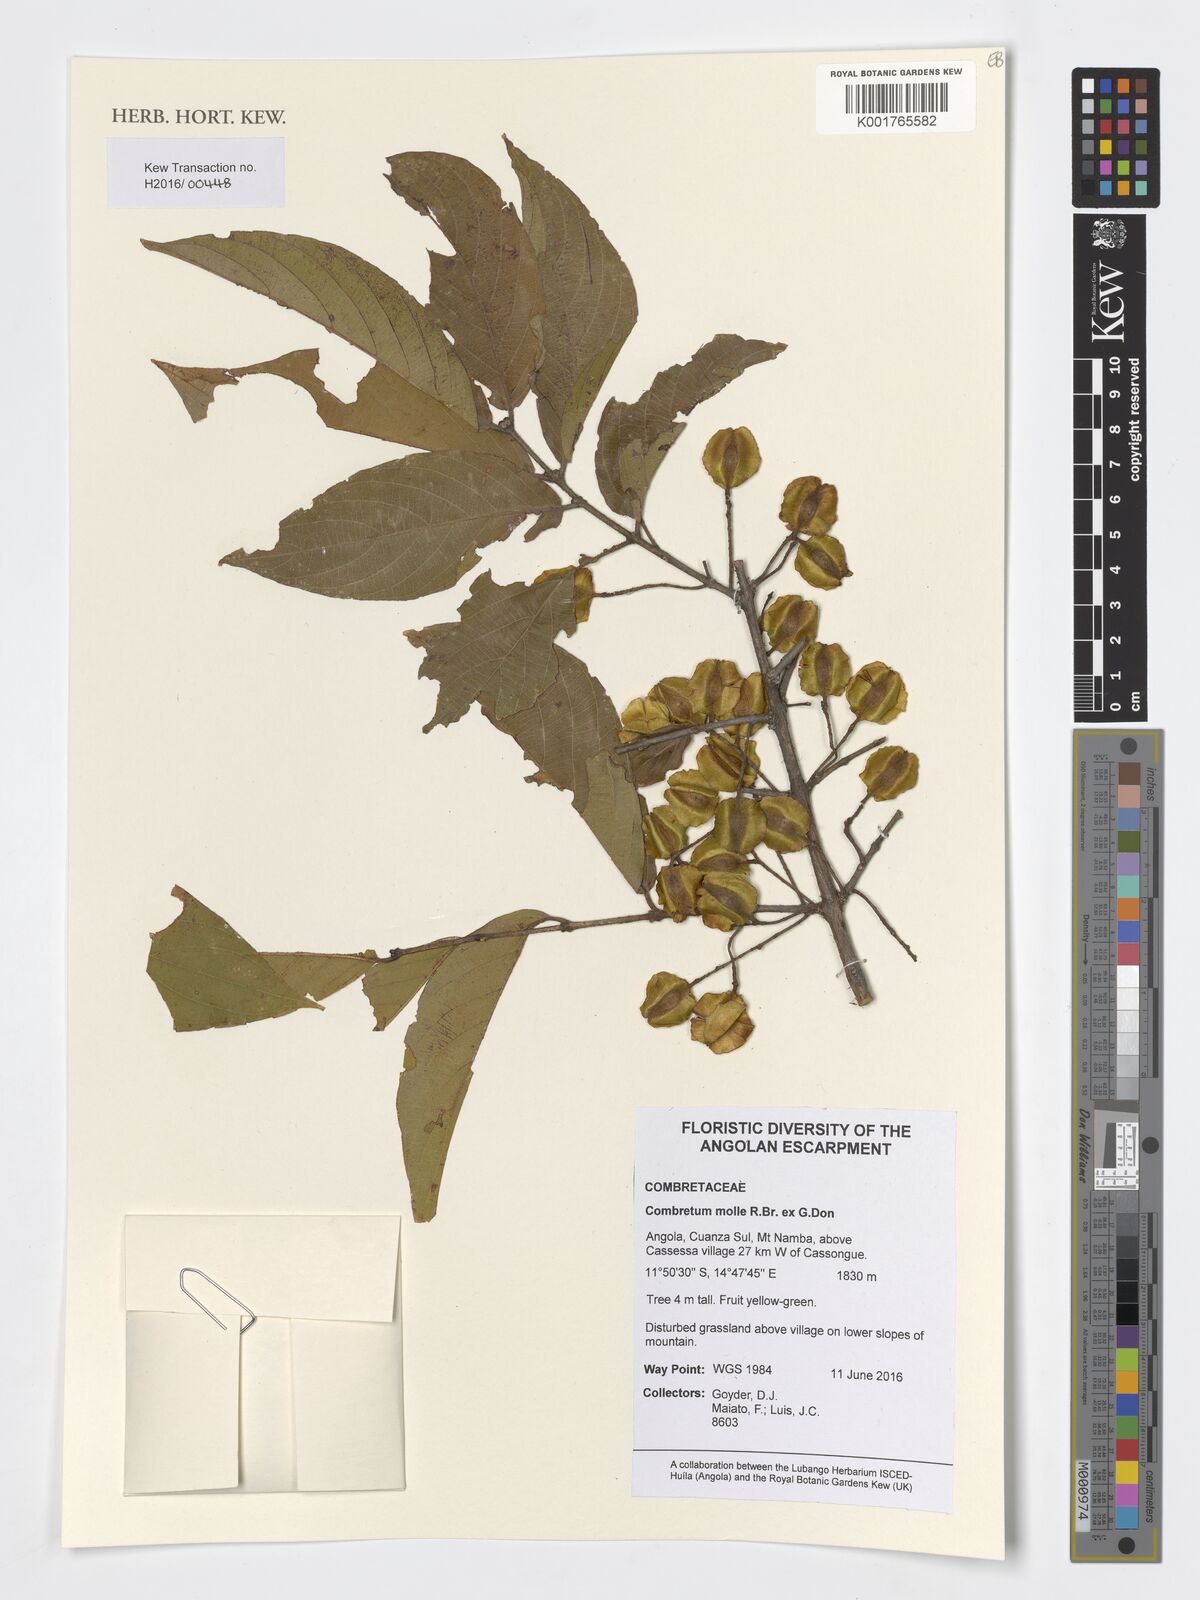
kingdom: Plantae
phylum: Tracheophyta
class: Magnoliopsida
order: Myrtales
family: Combretaceae
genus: Combretum
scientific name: Combretum molle
